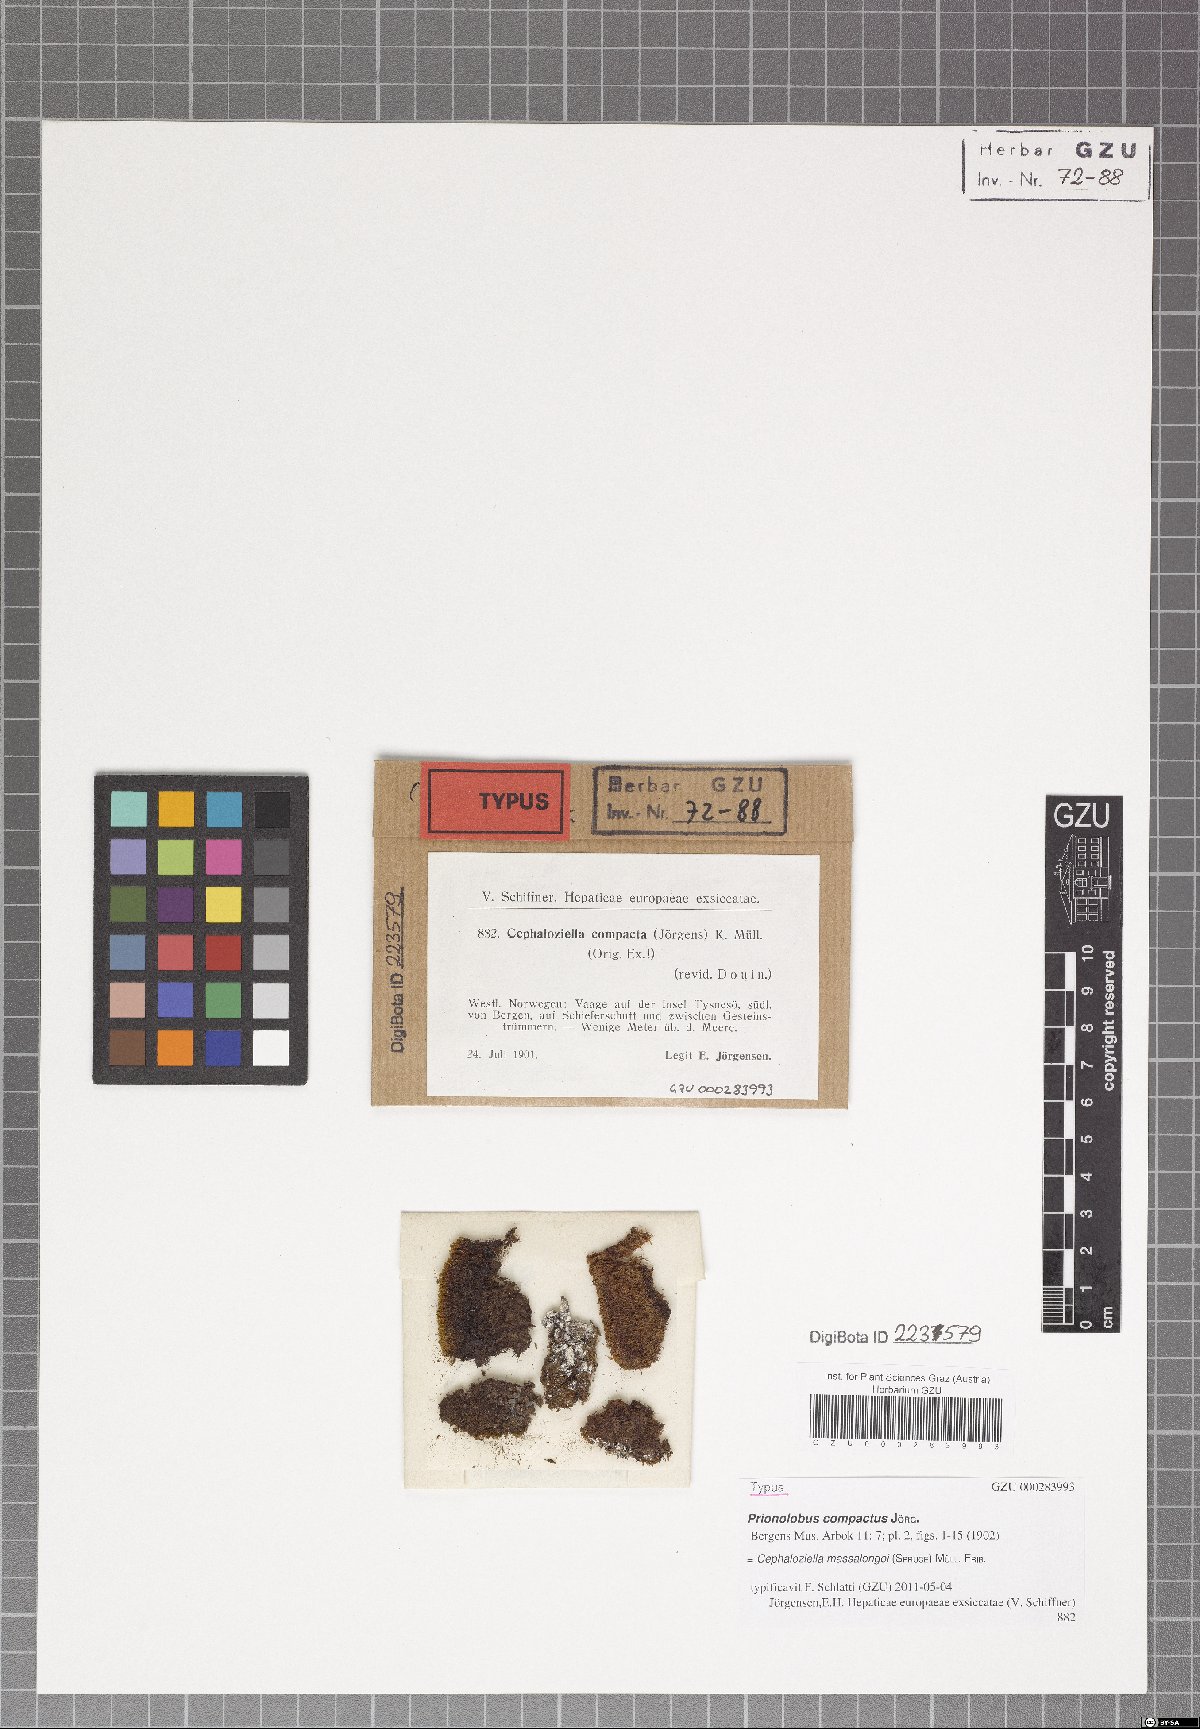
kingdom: Plantae
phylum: Marchantiophyta
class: Jungermanniopsida
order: Jungermanniales
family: Cephaloziellaceae
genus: Cephaloziella
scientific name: Cephaloziella massalongoi
